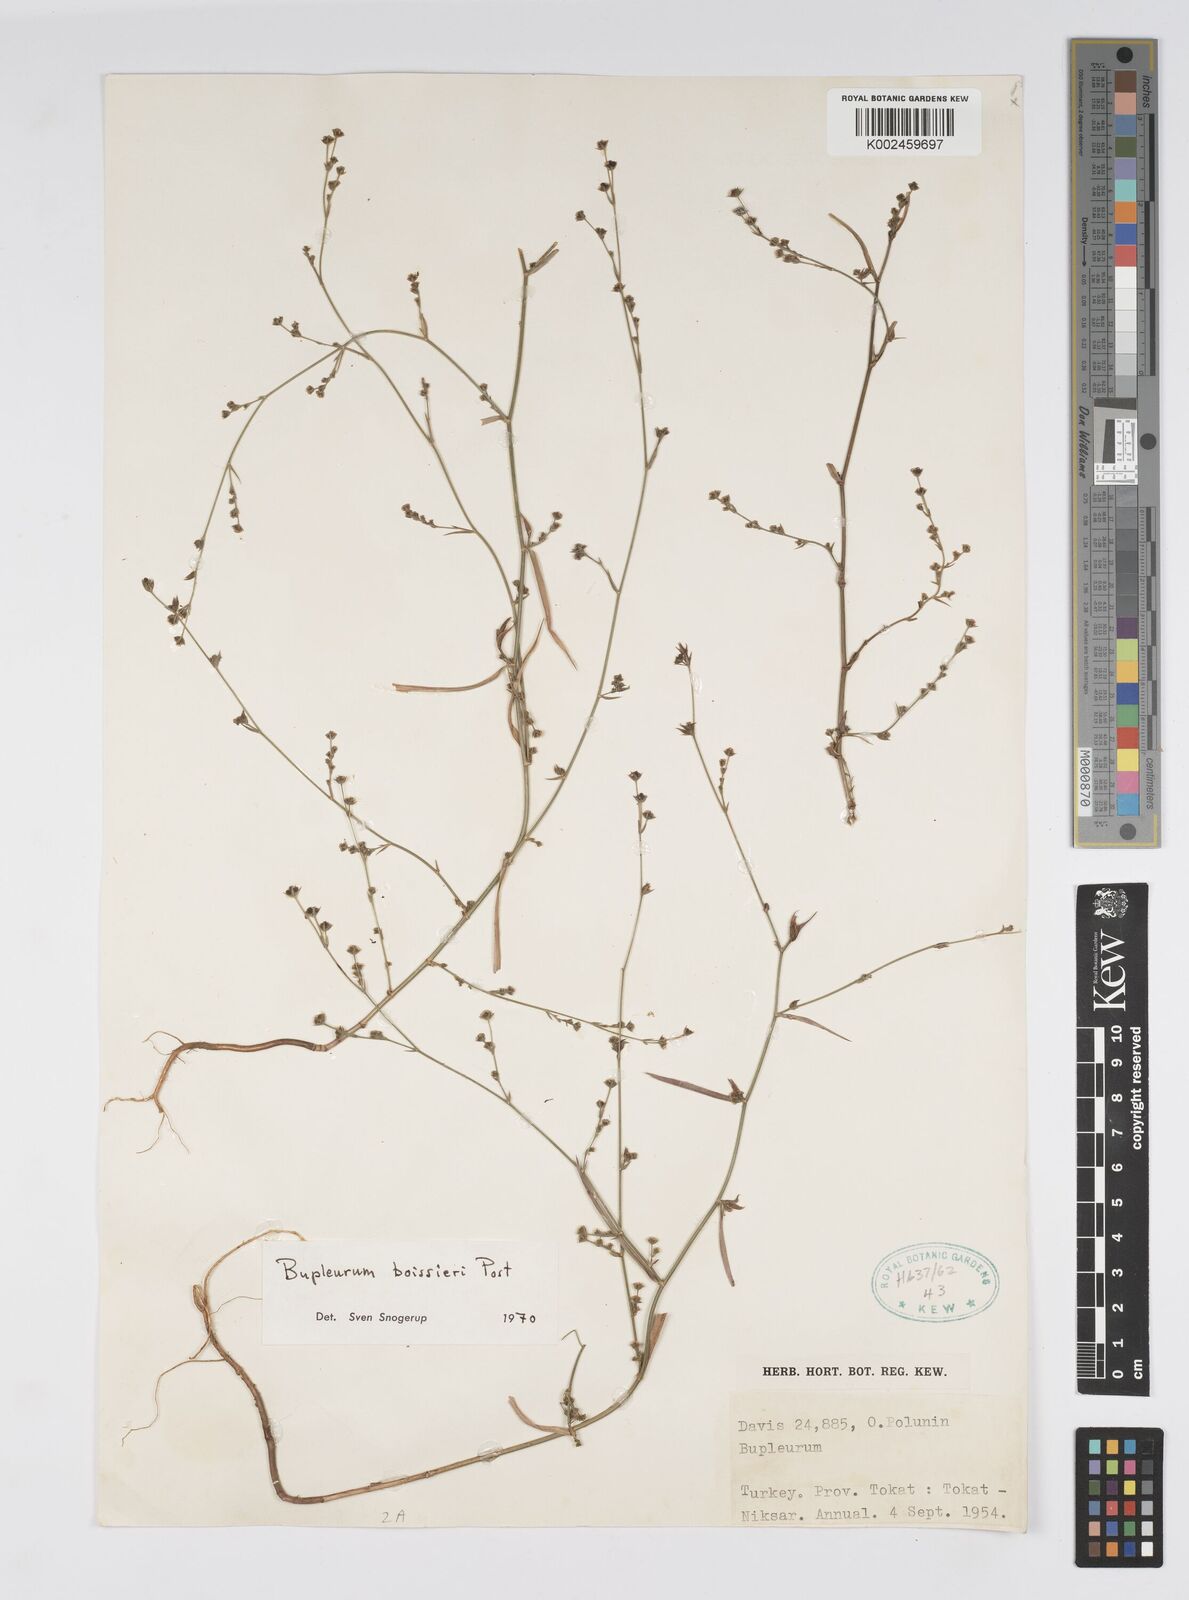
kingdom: Plantae
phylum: Tracheophyta
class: Magnoliopsida
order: Apiales
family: Apiaceae
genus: Bupleurum
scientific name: Bupleurum boissieri
